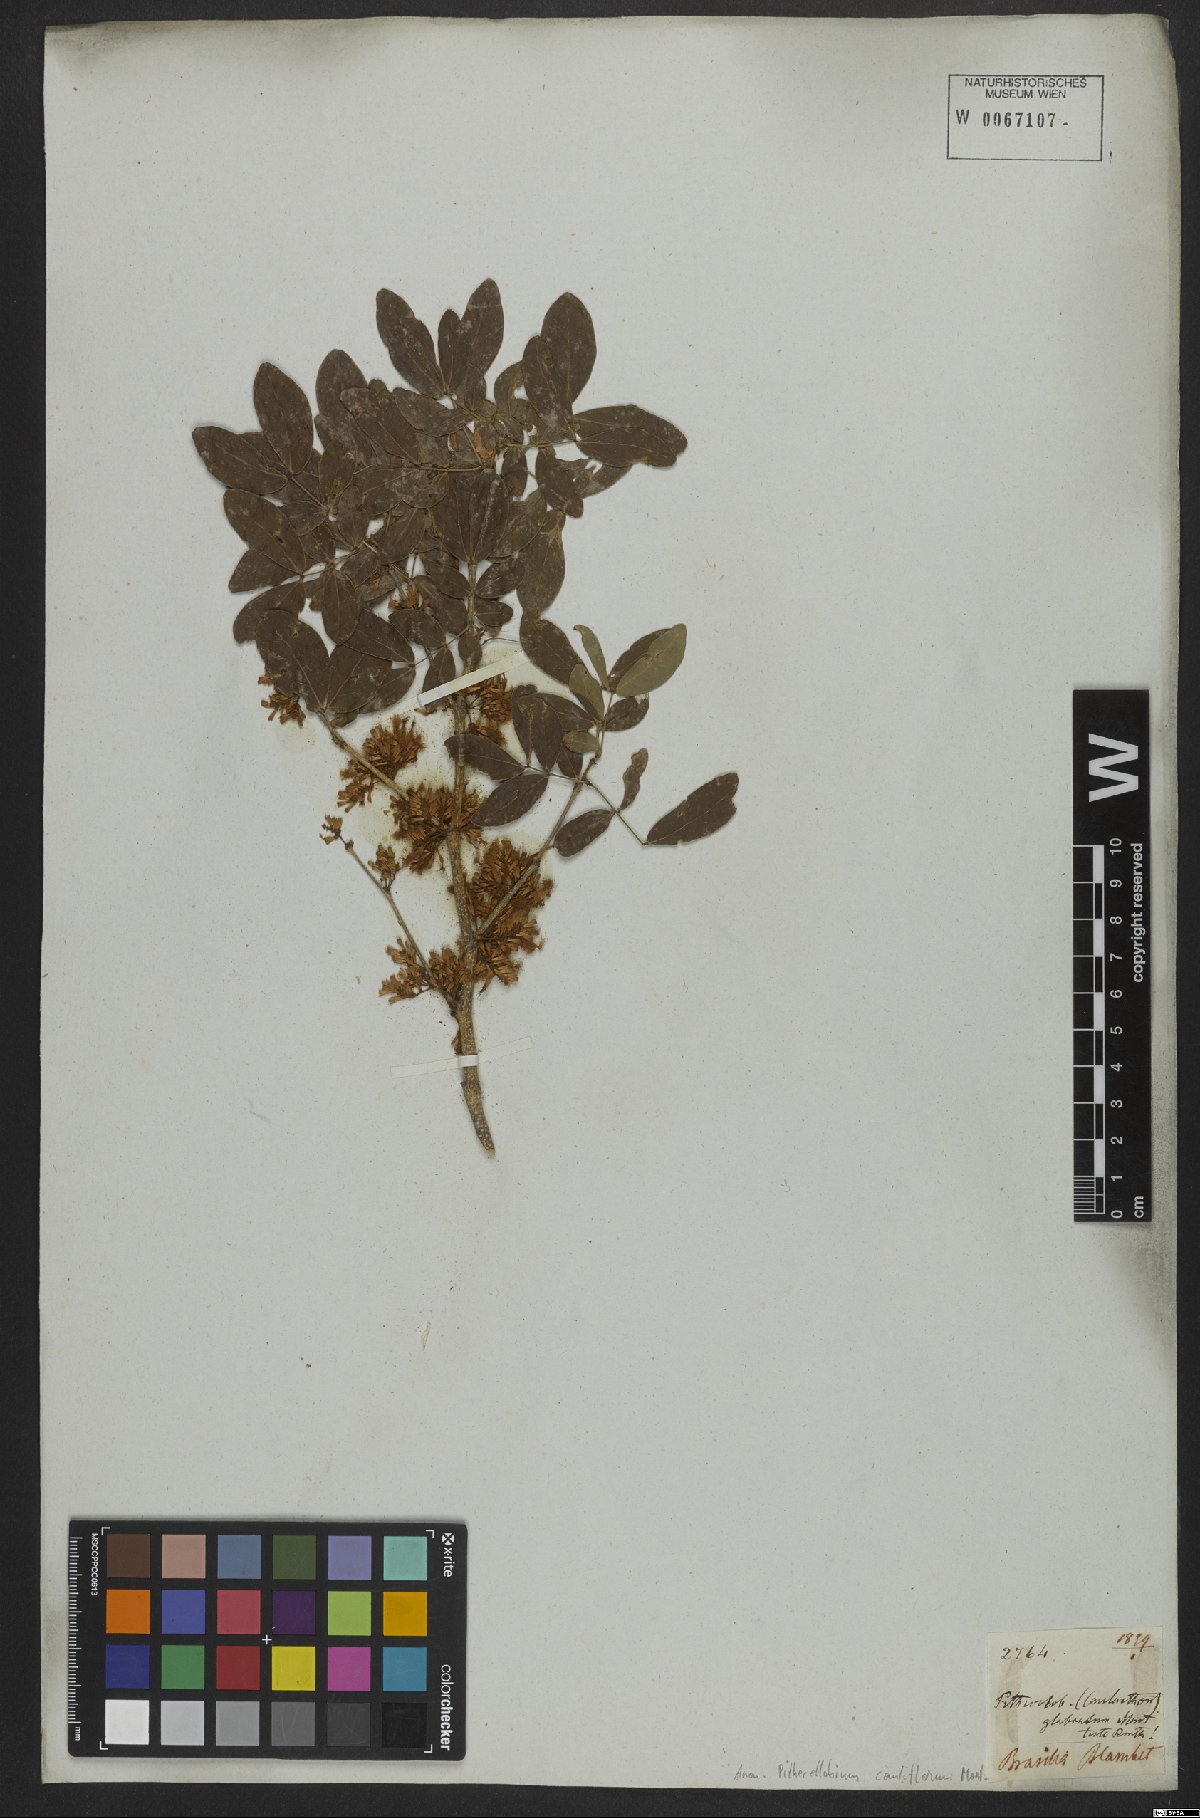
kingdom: Plantae
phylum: Tracheophyta
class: Magnoliopsida
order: Fabales
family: Fabaceae
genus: Zygia
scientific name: Zygia cauliflora
